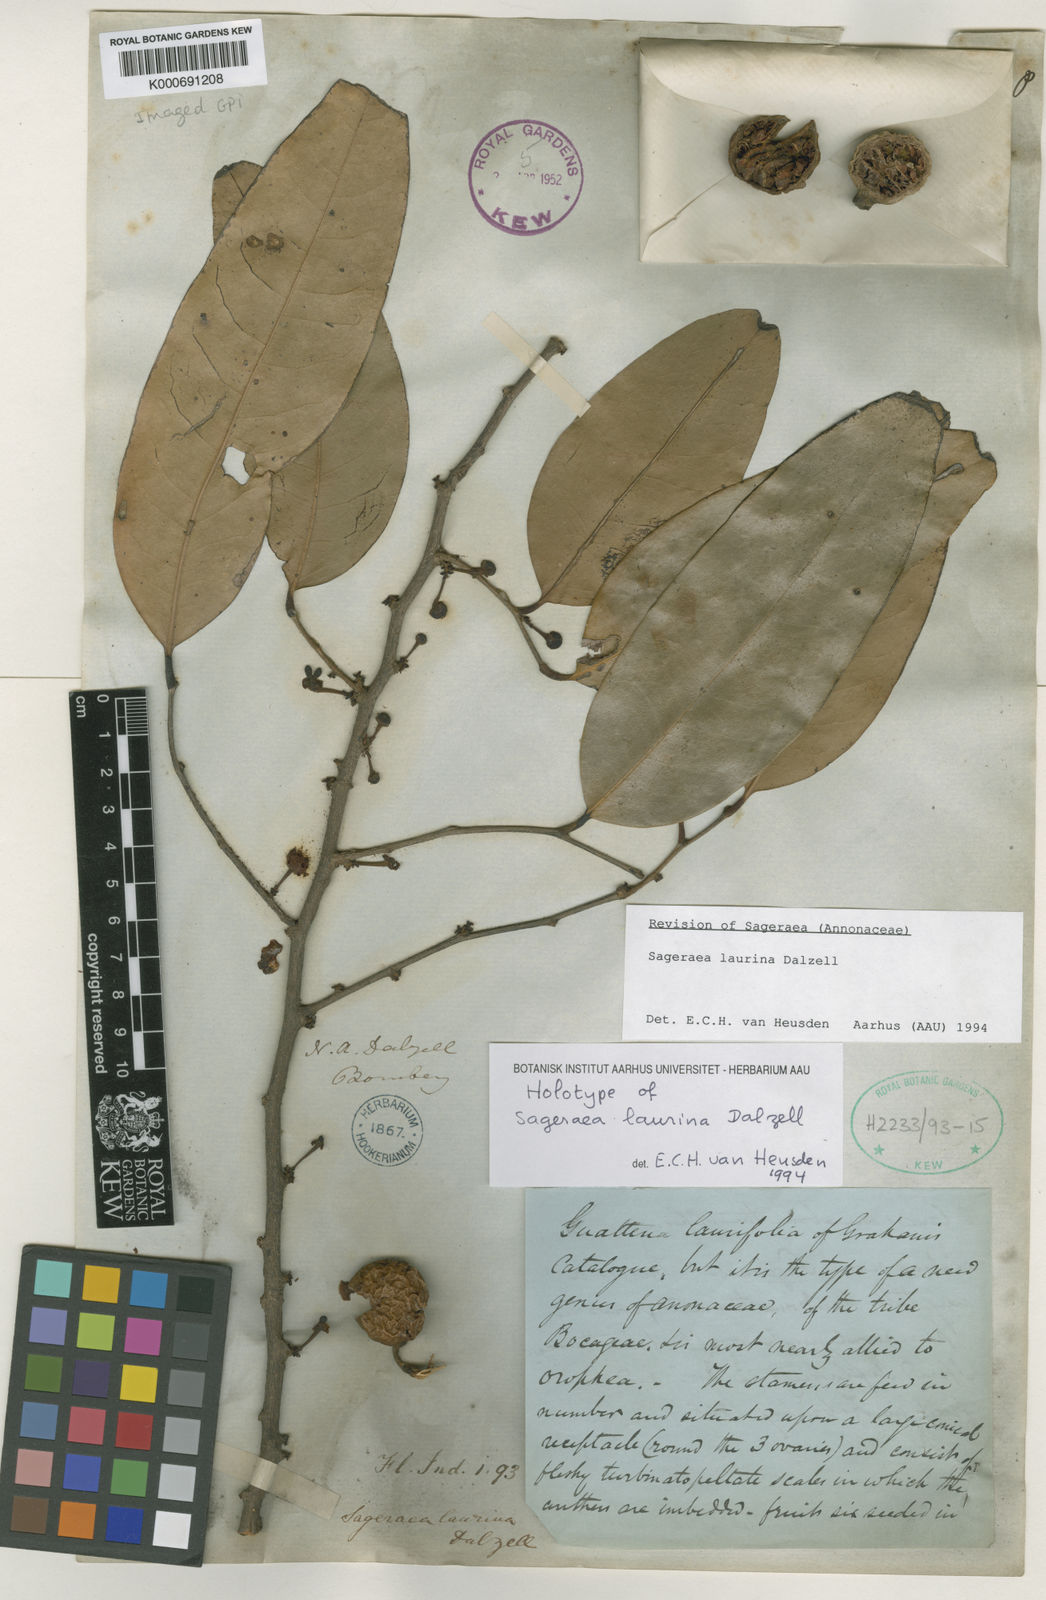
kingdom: Plantae
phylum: Tracheophyta
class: Magnoliopsida
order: Magnoliales
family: Annonaceae
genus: Sageraea
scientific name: Sageraea laurina
